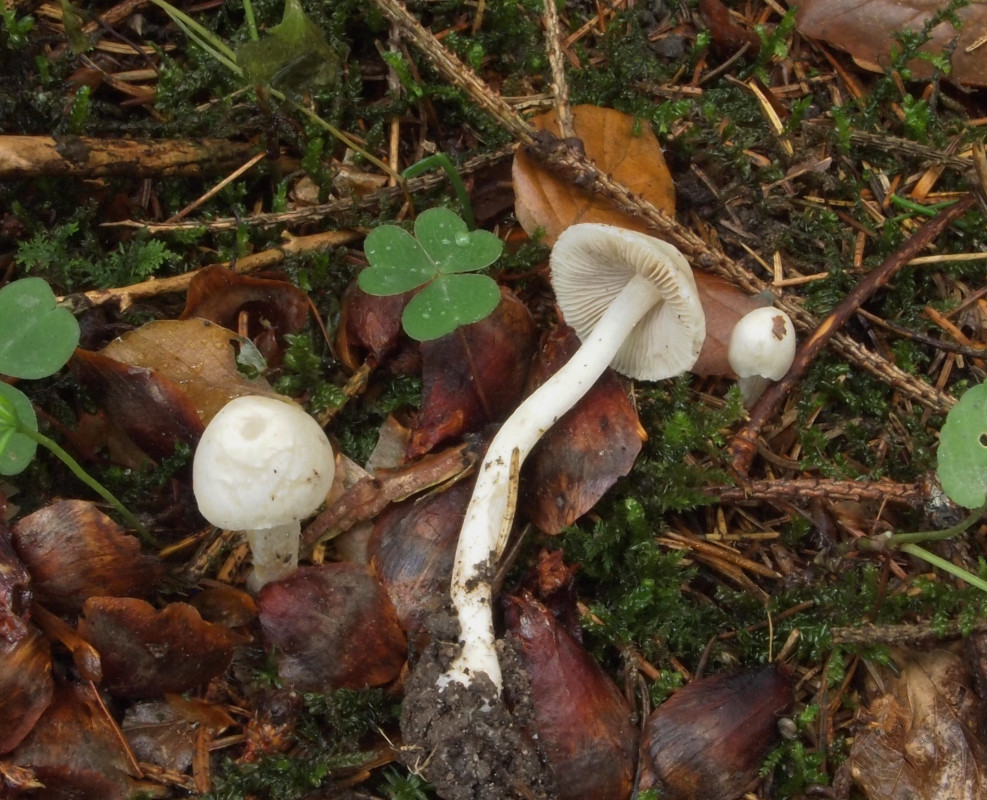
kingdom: Fungi
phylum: Basidiomycota
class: Agaricomycetes
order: Agaricales
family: Inocybaceae
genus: Inocybe
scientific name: Inocybe
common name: almindelig trævlhat
